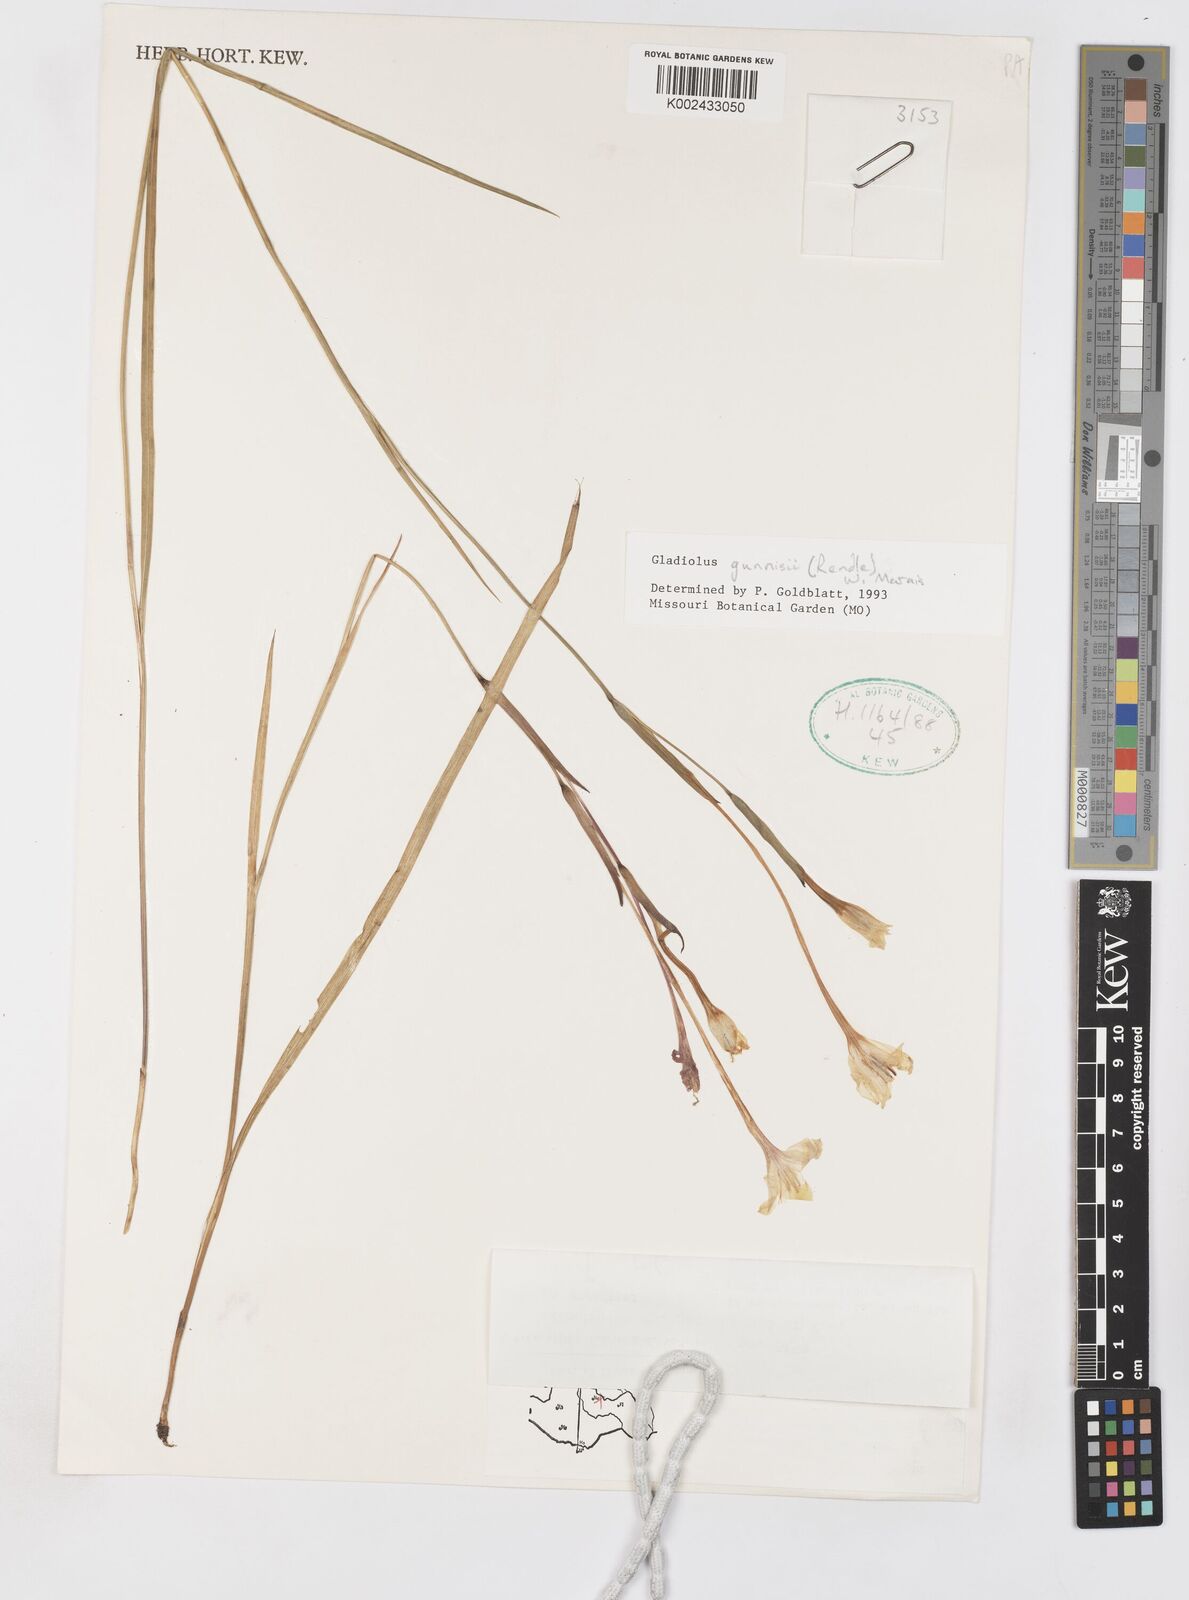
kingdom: Plantae
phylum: Tracheophyta
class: Liliopsida
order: Asparagales
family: Iridaceae
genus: Gladiolus
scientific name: Gladiolus gunnisii
